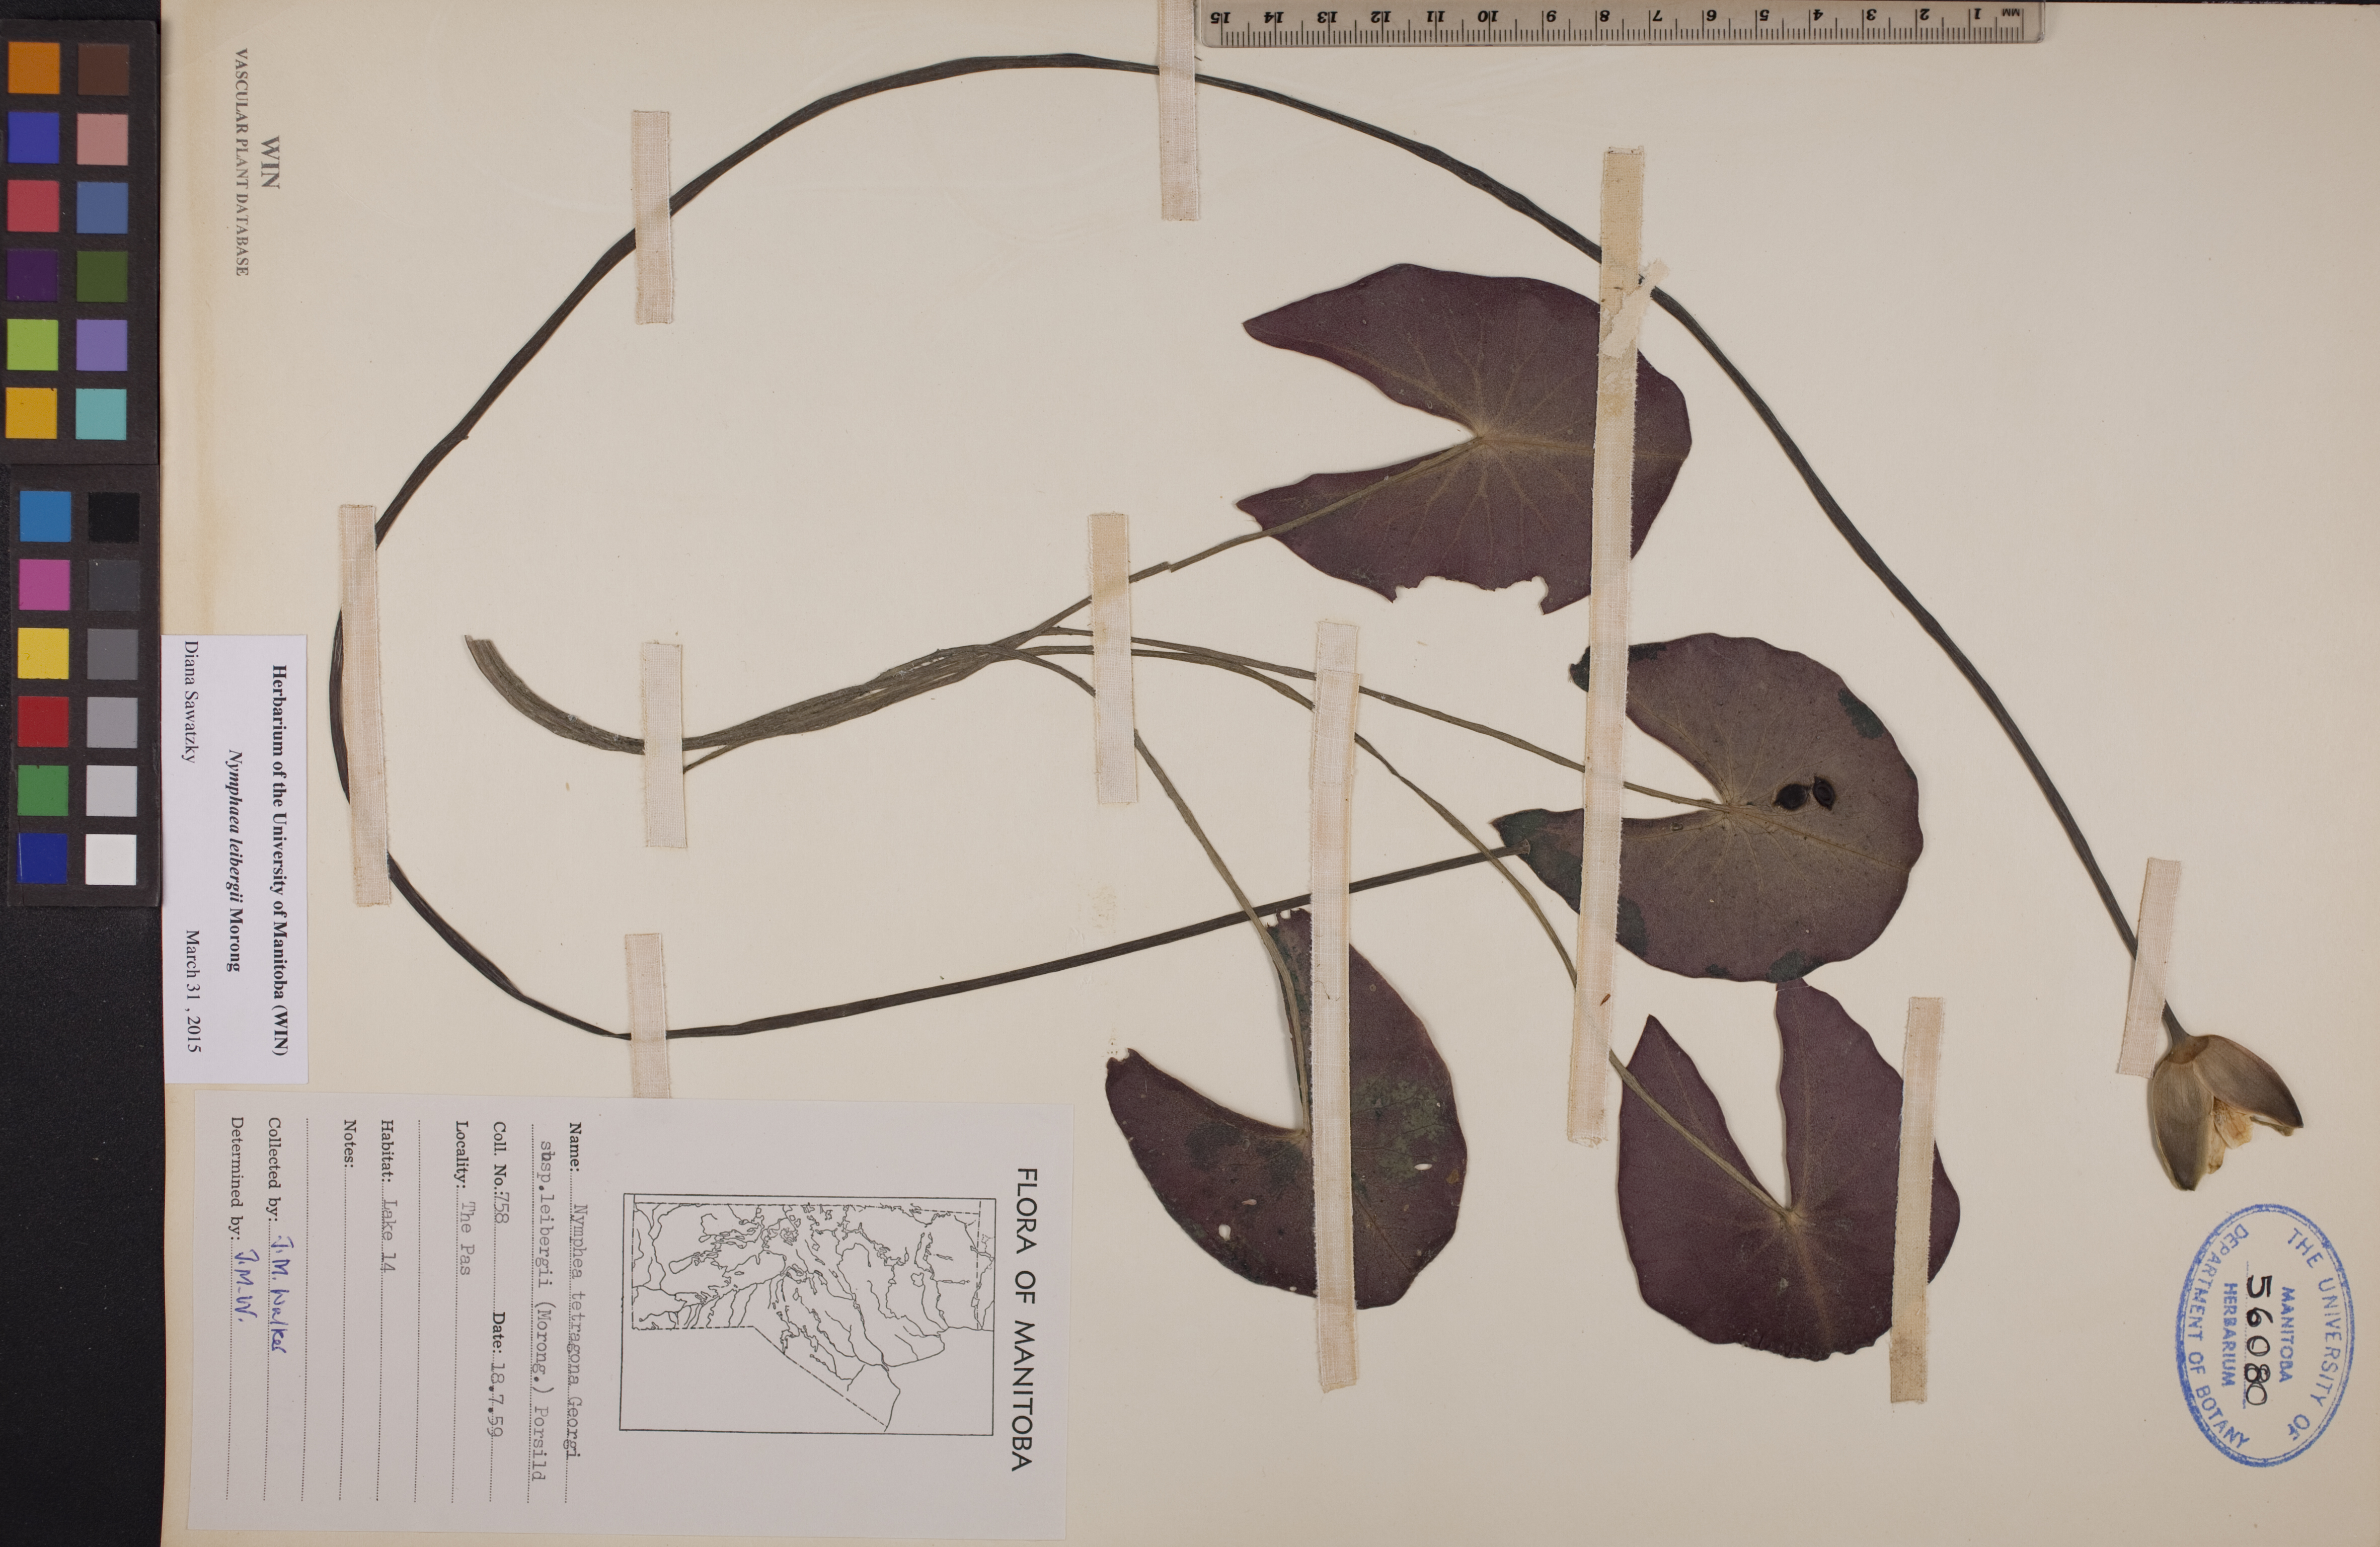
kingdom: Plantae
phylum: Tracheophyta
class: Magnoliopsida
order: Nymphaeales
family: Nymphaeaceae
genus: Nymphaea
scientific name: Nymphaea leibergii
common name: Dwarf water-lily
